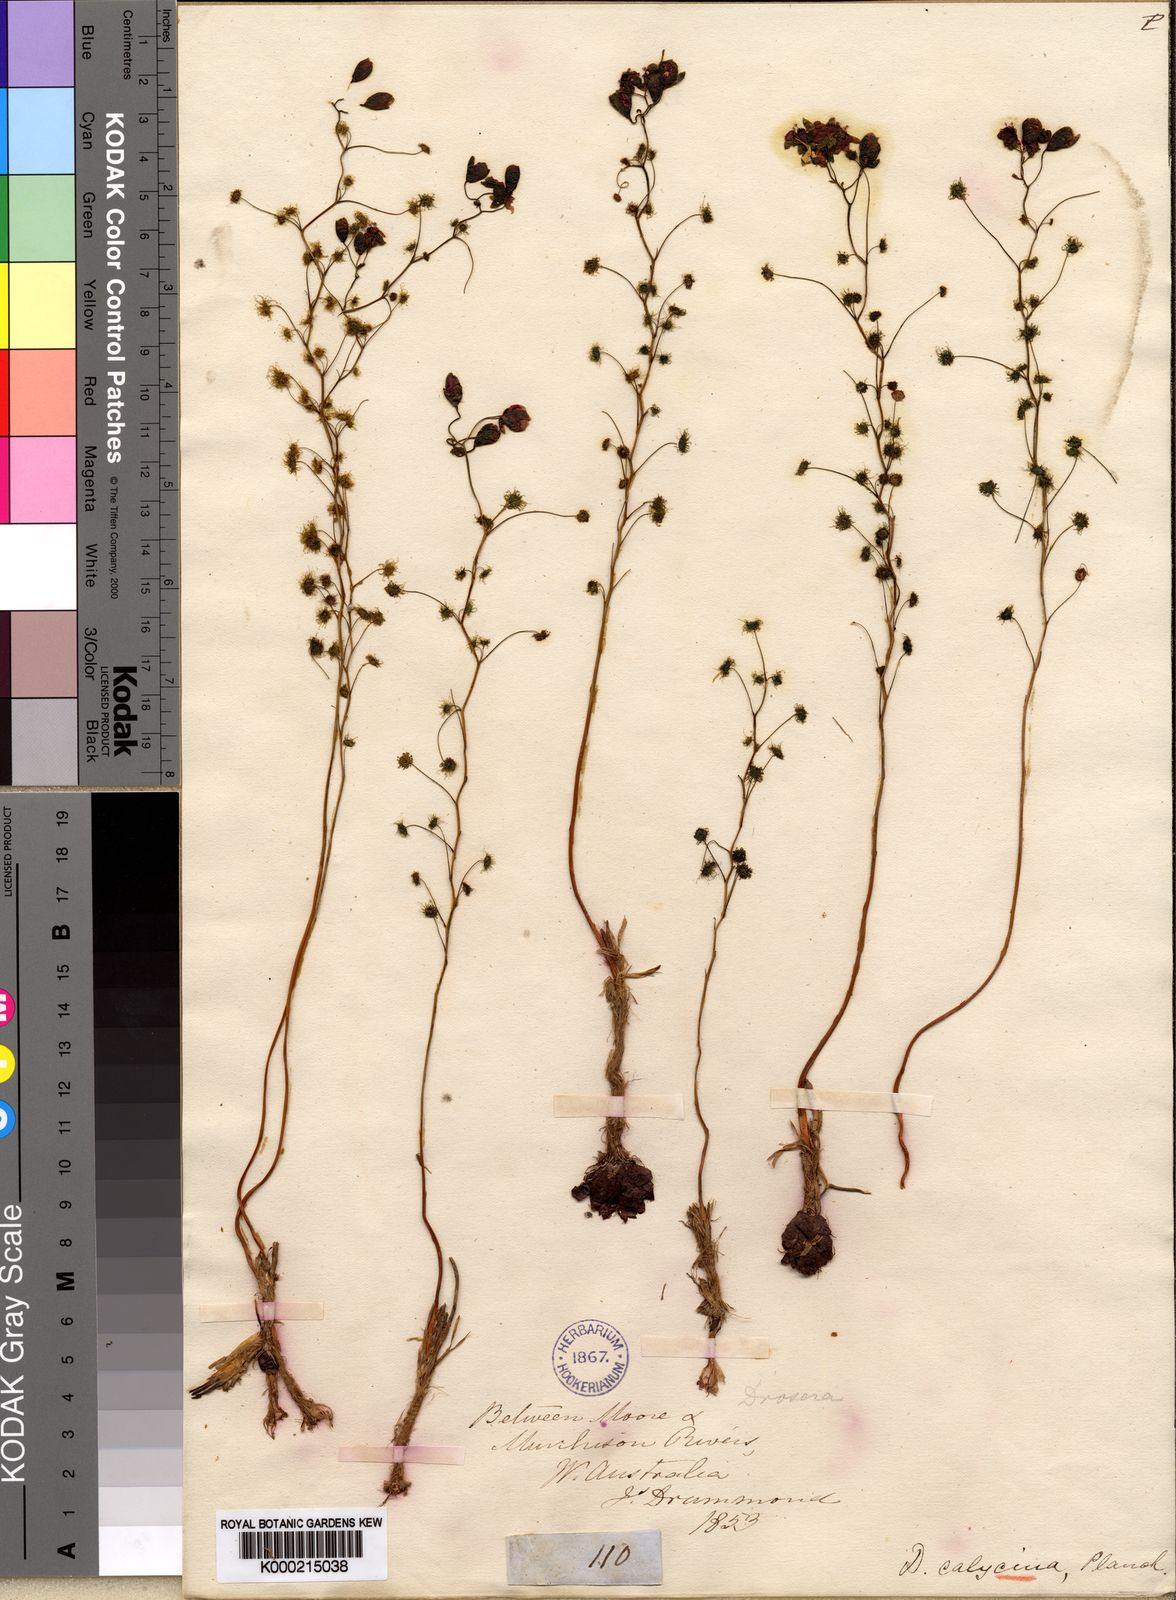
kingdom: Plantae
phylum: Tracheophyta
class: Magnoliopsida
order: Caryophyllales
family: Droseraceae
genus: Drosera
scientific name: Drosera microphylla
